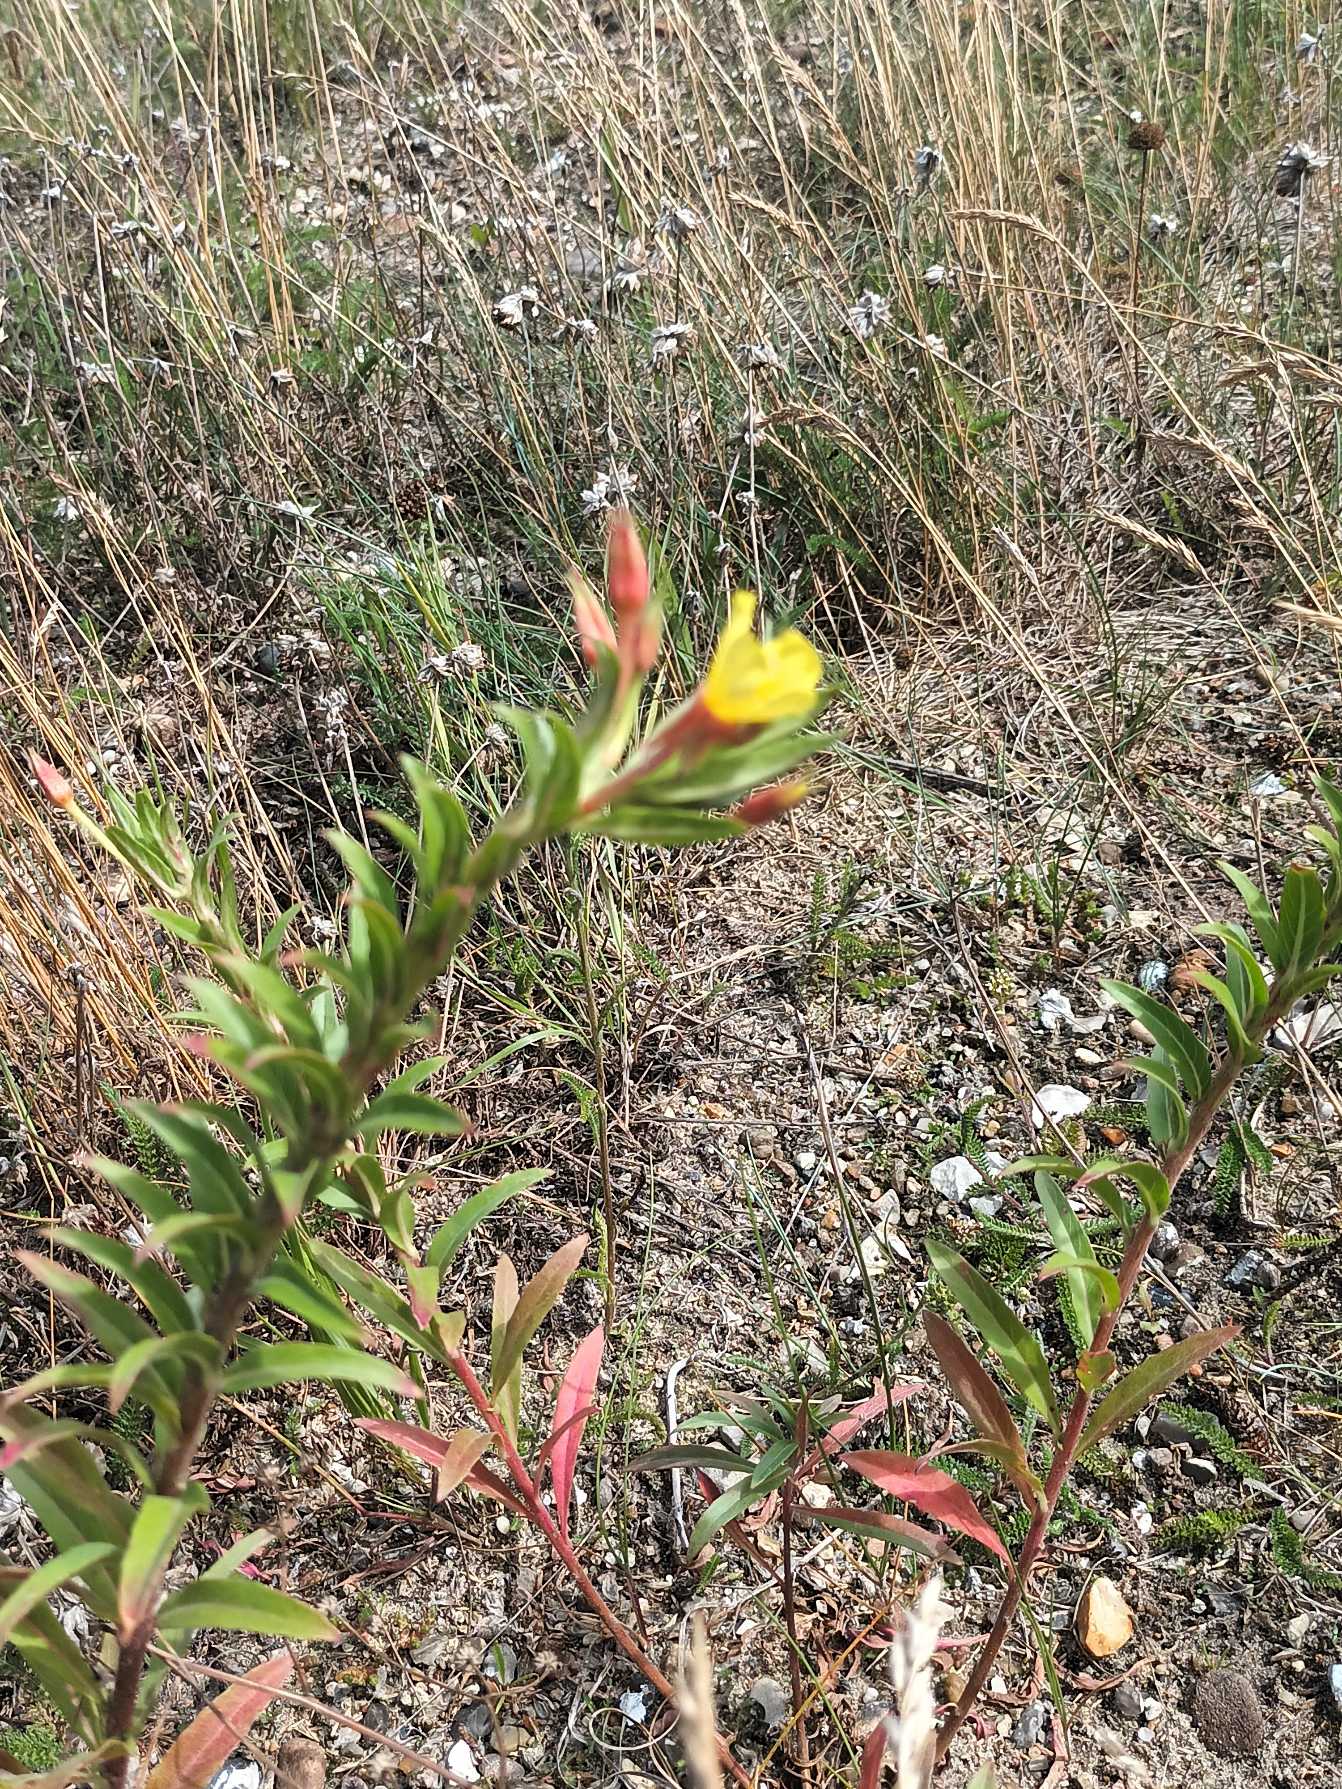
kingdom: Plantae
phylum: Tracheophyta
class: Magnoliopsida
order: Myrtales
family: Onagraceae
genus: Oenothera
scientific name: Oenothera ammophila
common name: Klit-natlys
